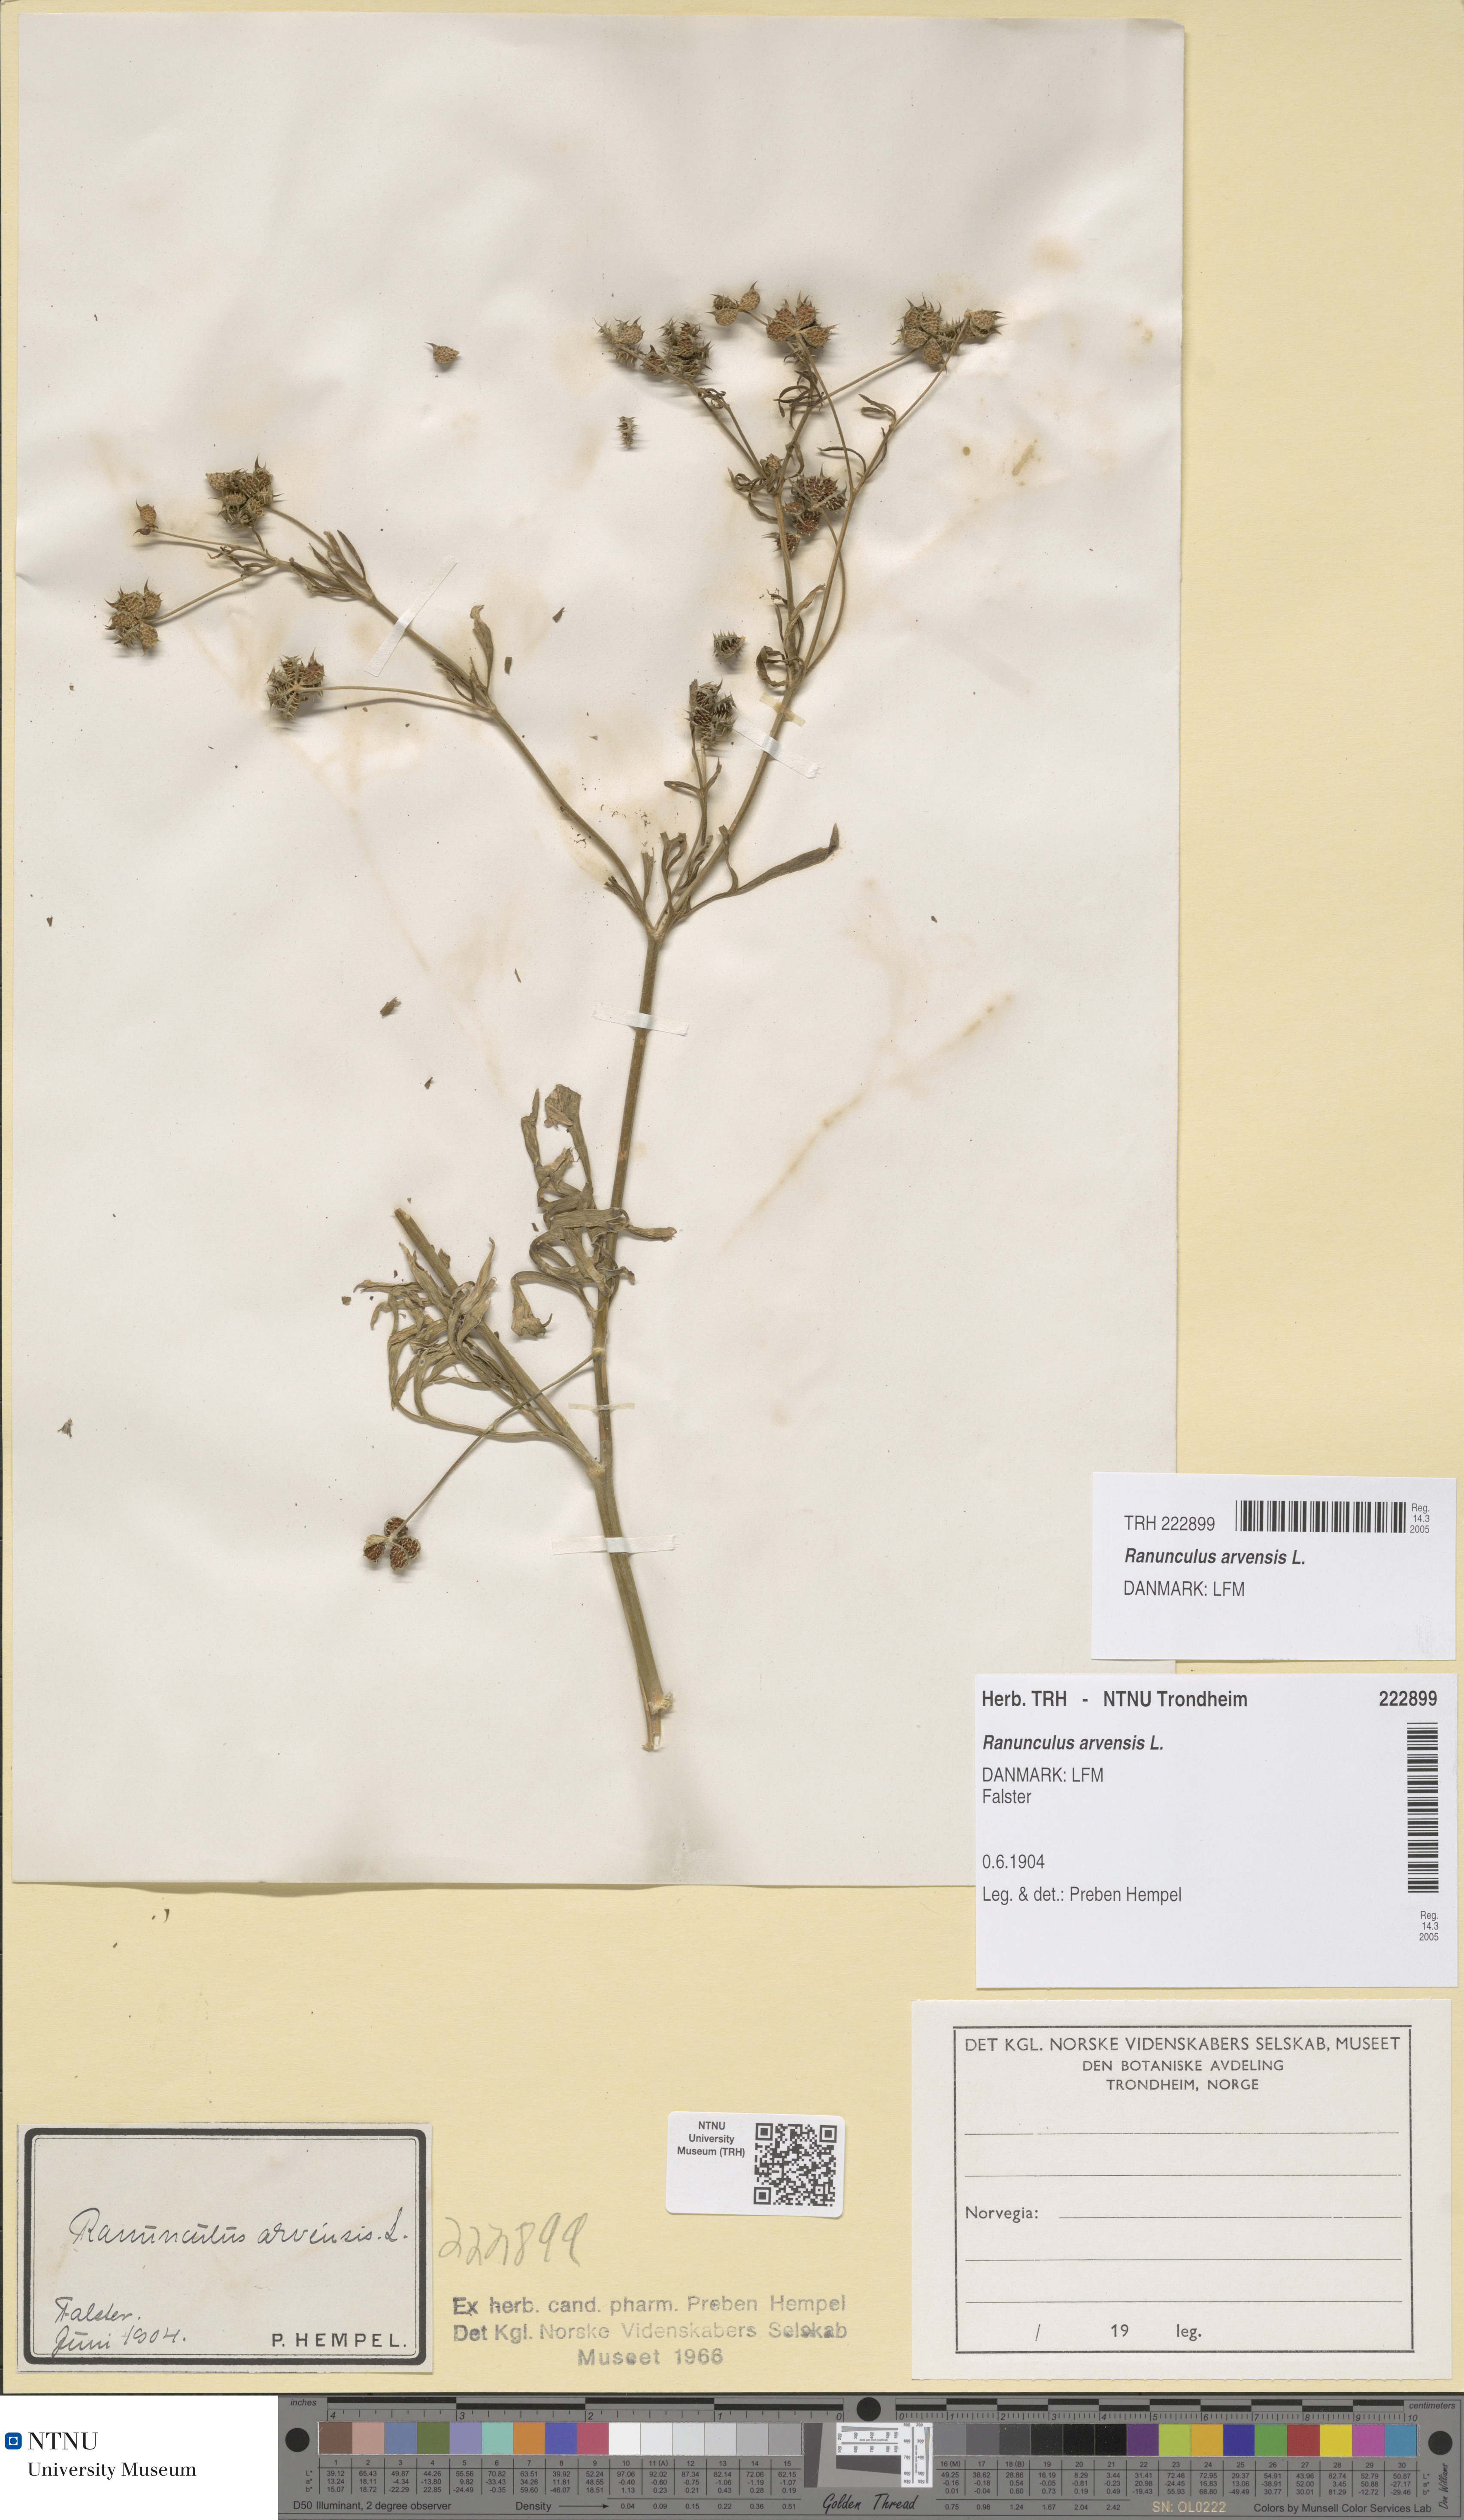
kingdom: Plantae
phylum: Tracheophyta
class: Magnoliopsida
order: Ranunculales
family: Ranunculaceae
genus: Ranunculus
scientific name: Ranunculus arvensis
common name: Corn buttercup
